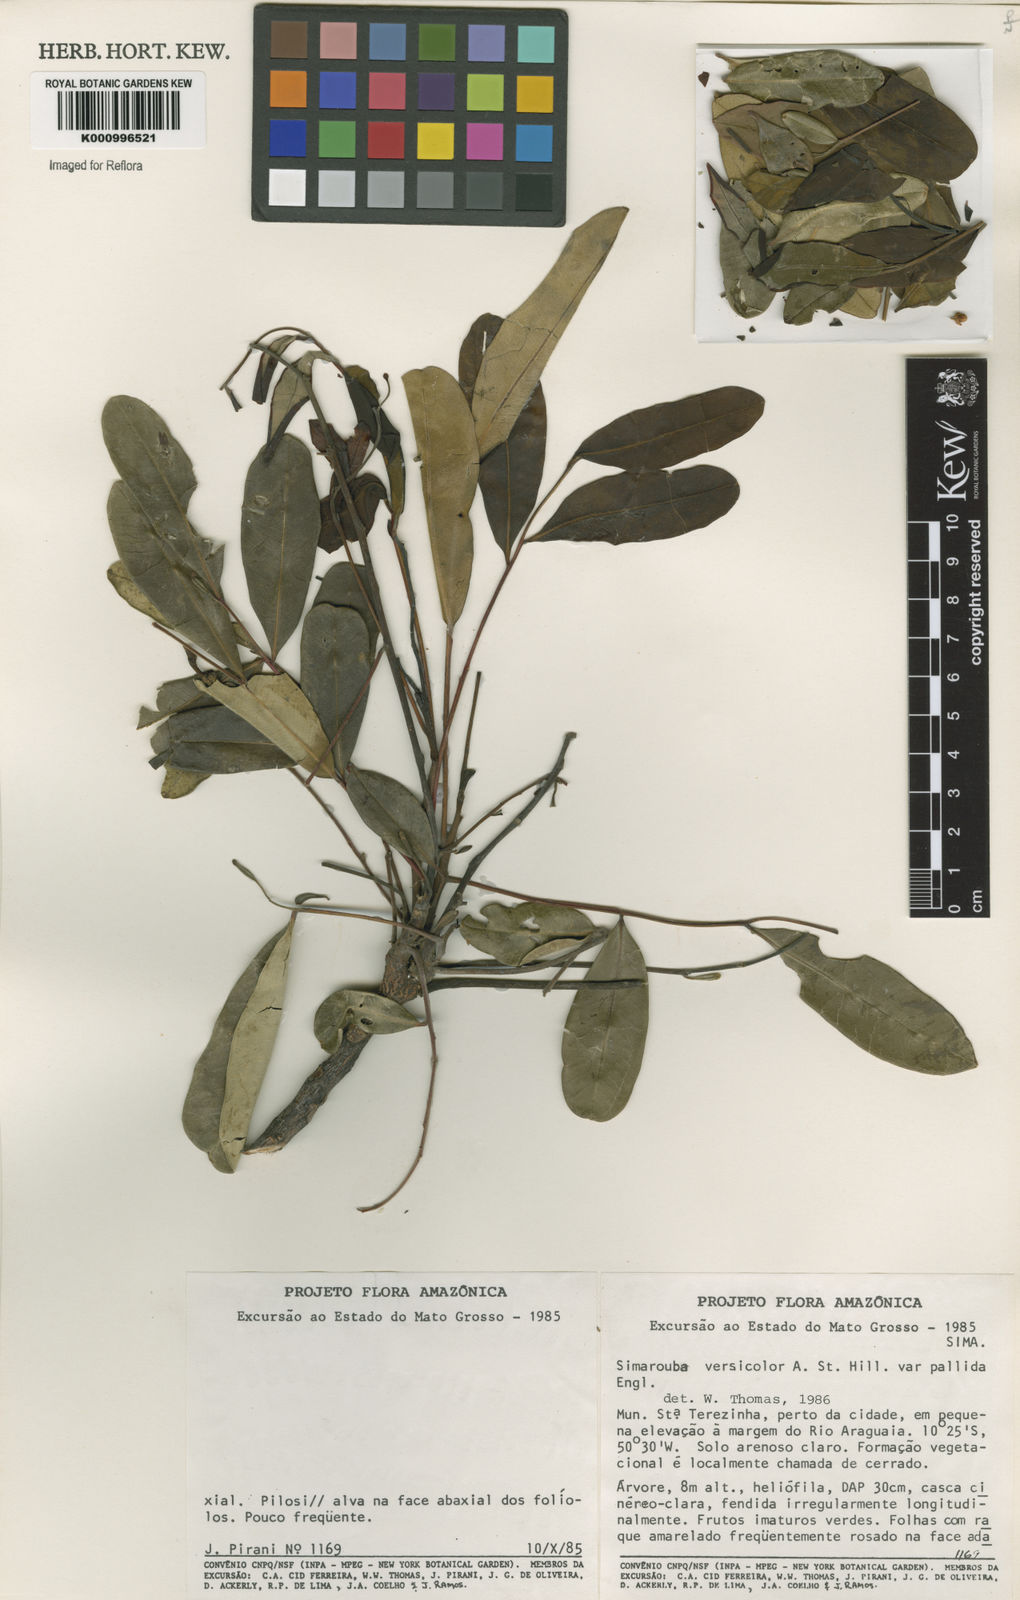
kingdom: Plantae
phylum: Tracheophyta
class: Magnoliopsida
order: Sapindales
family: Simaroubaceae
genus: Simarouba
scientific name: Simarouba versicolor
